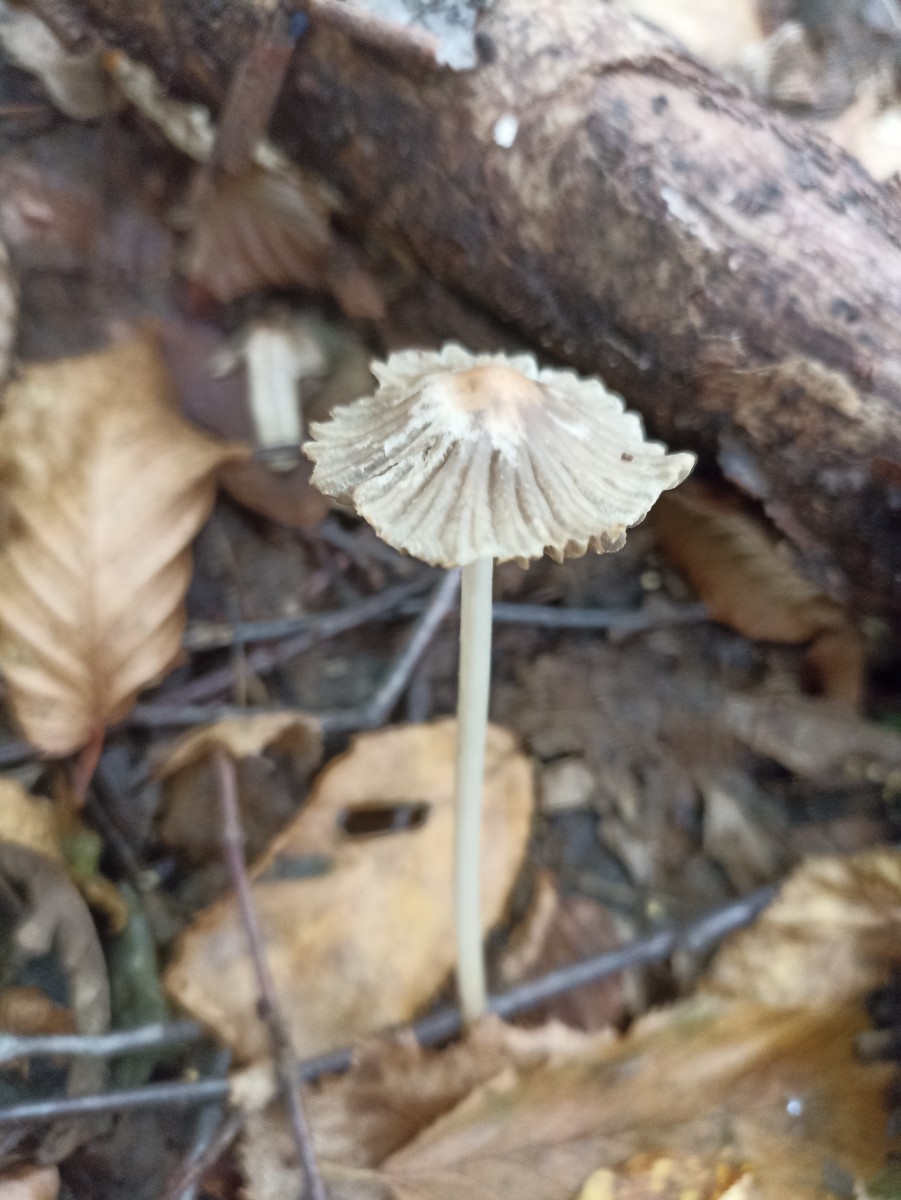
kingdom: Fungi
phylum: Basidiomycota
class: Agaricomycetes
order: Agaricales
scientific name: Agaricales
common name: champignonordenen
